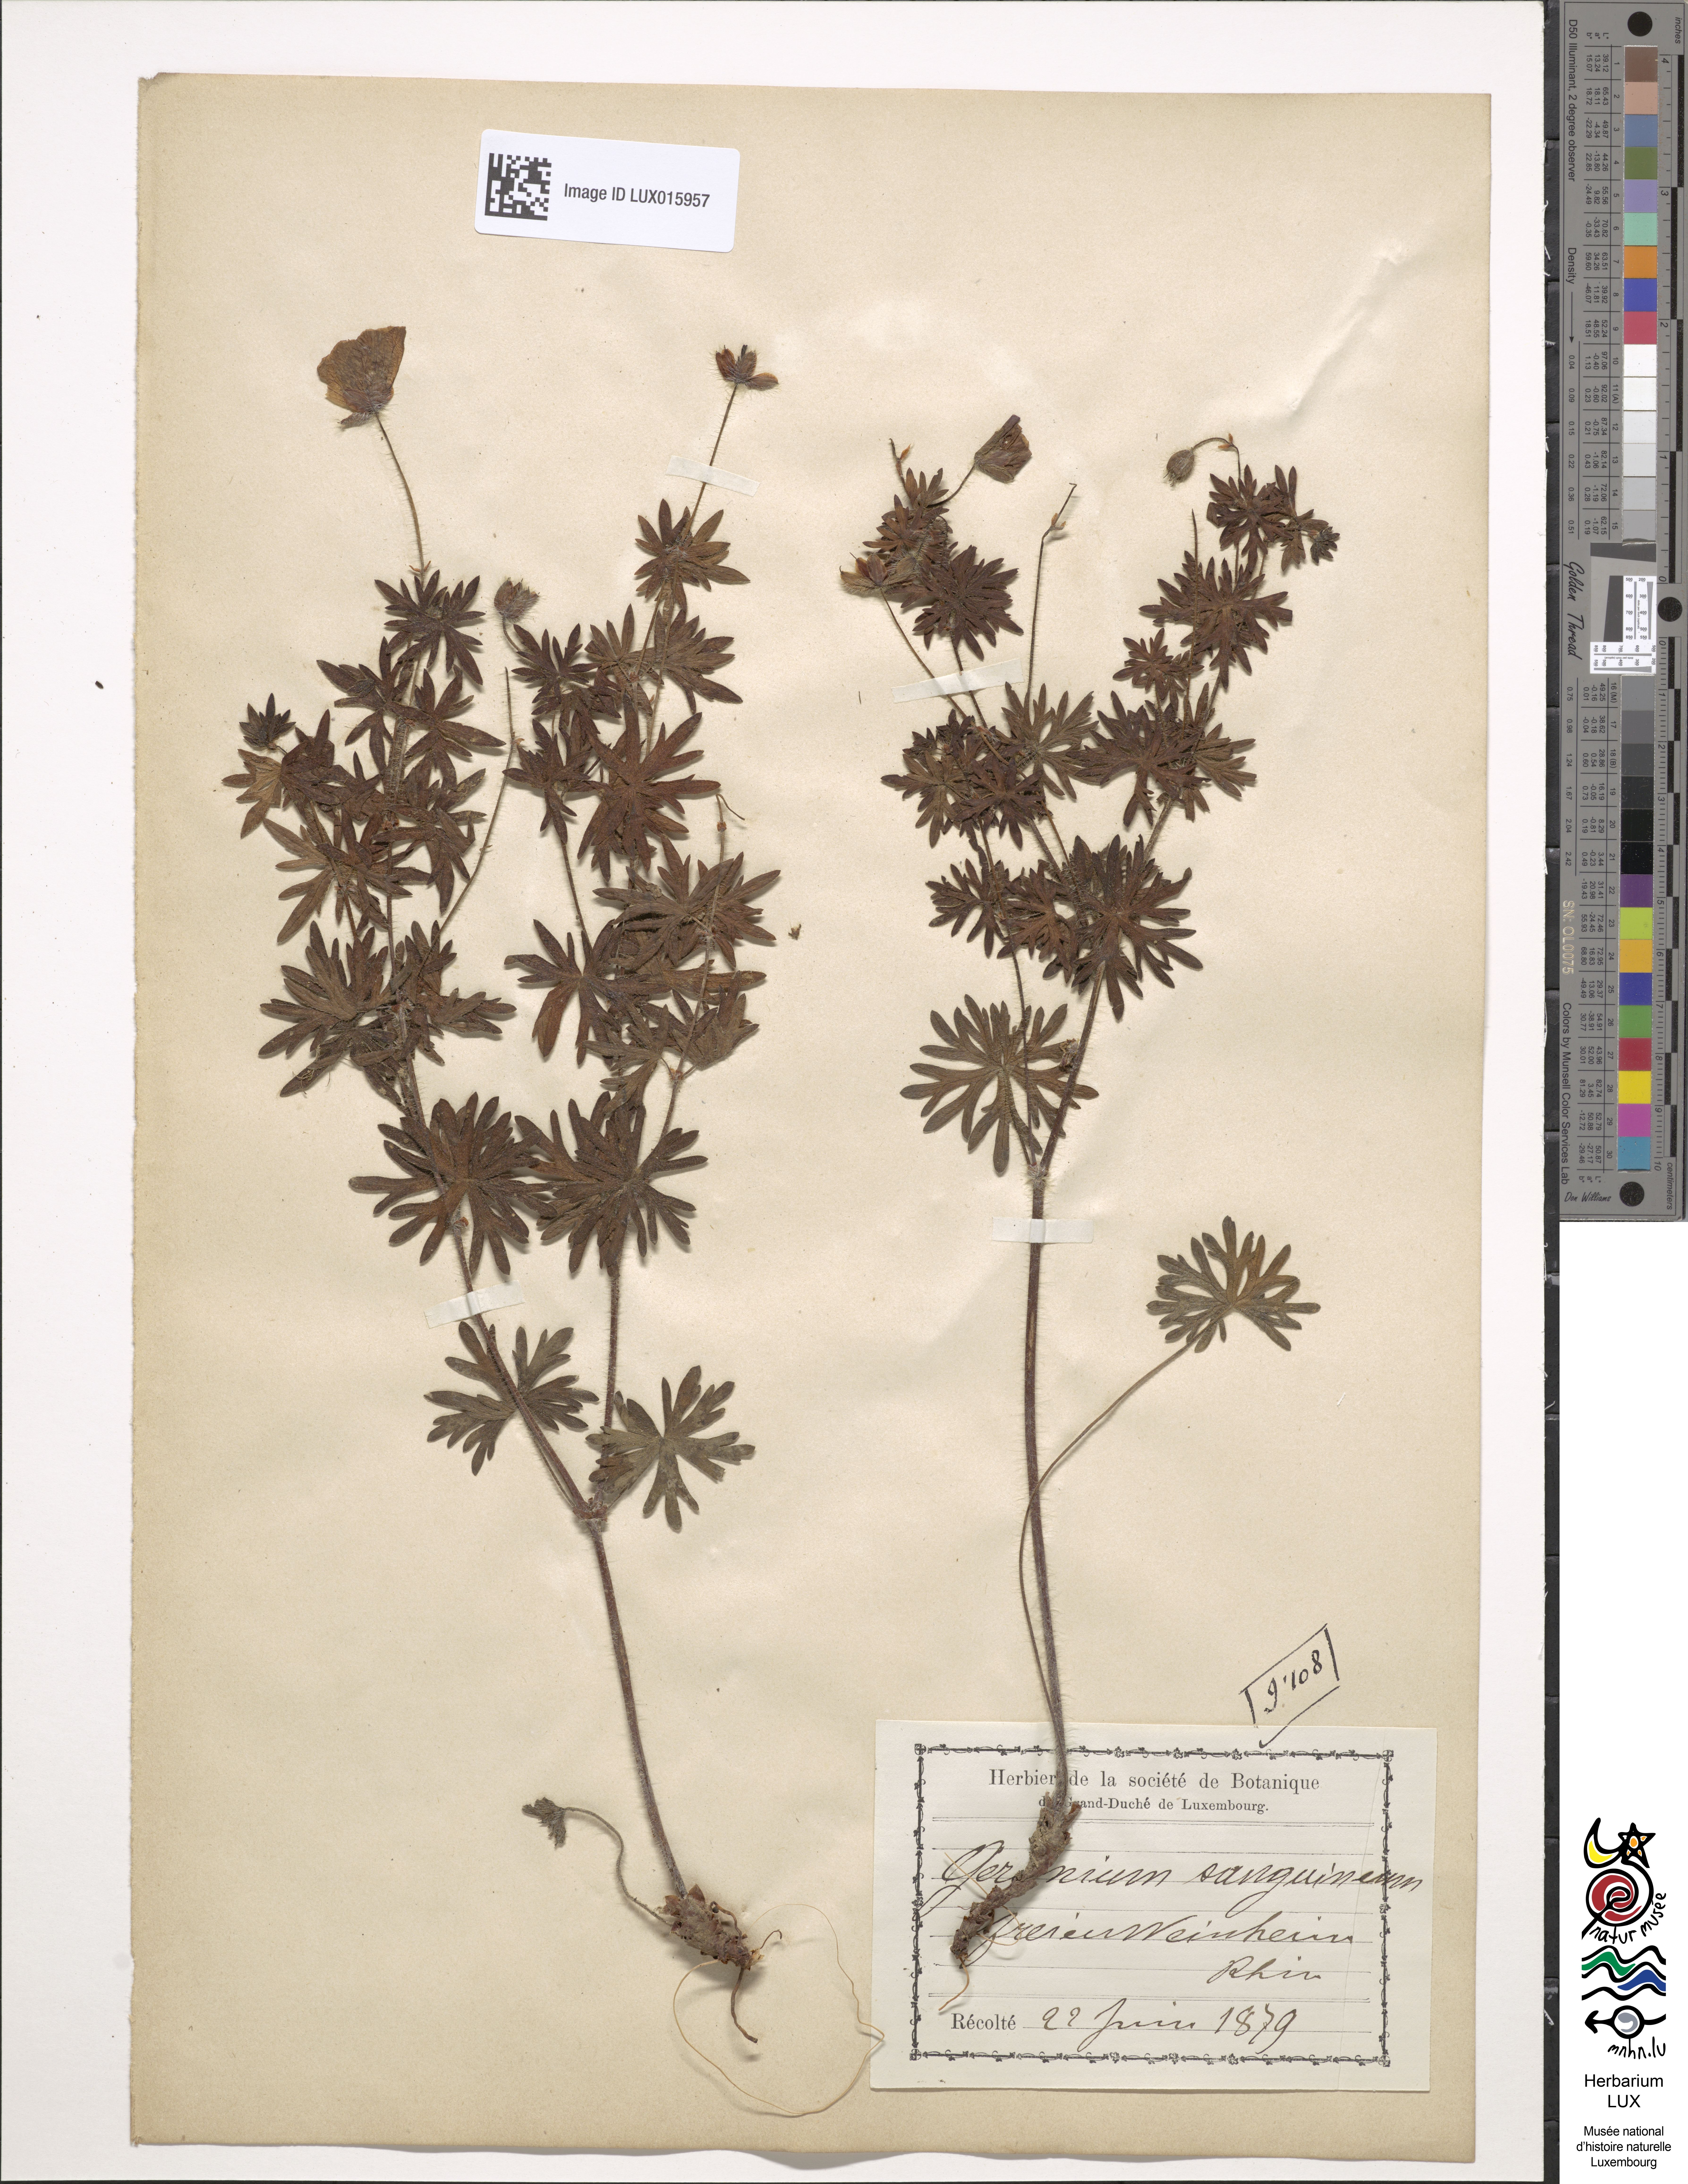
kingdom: Plantae
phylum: Tracheophyta
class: Magnoliopsida
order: Geraniales
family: Geraniaceae
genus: Geranium
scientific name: Geranium sanguineum
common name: Bloody crane's-bill
